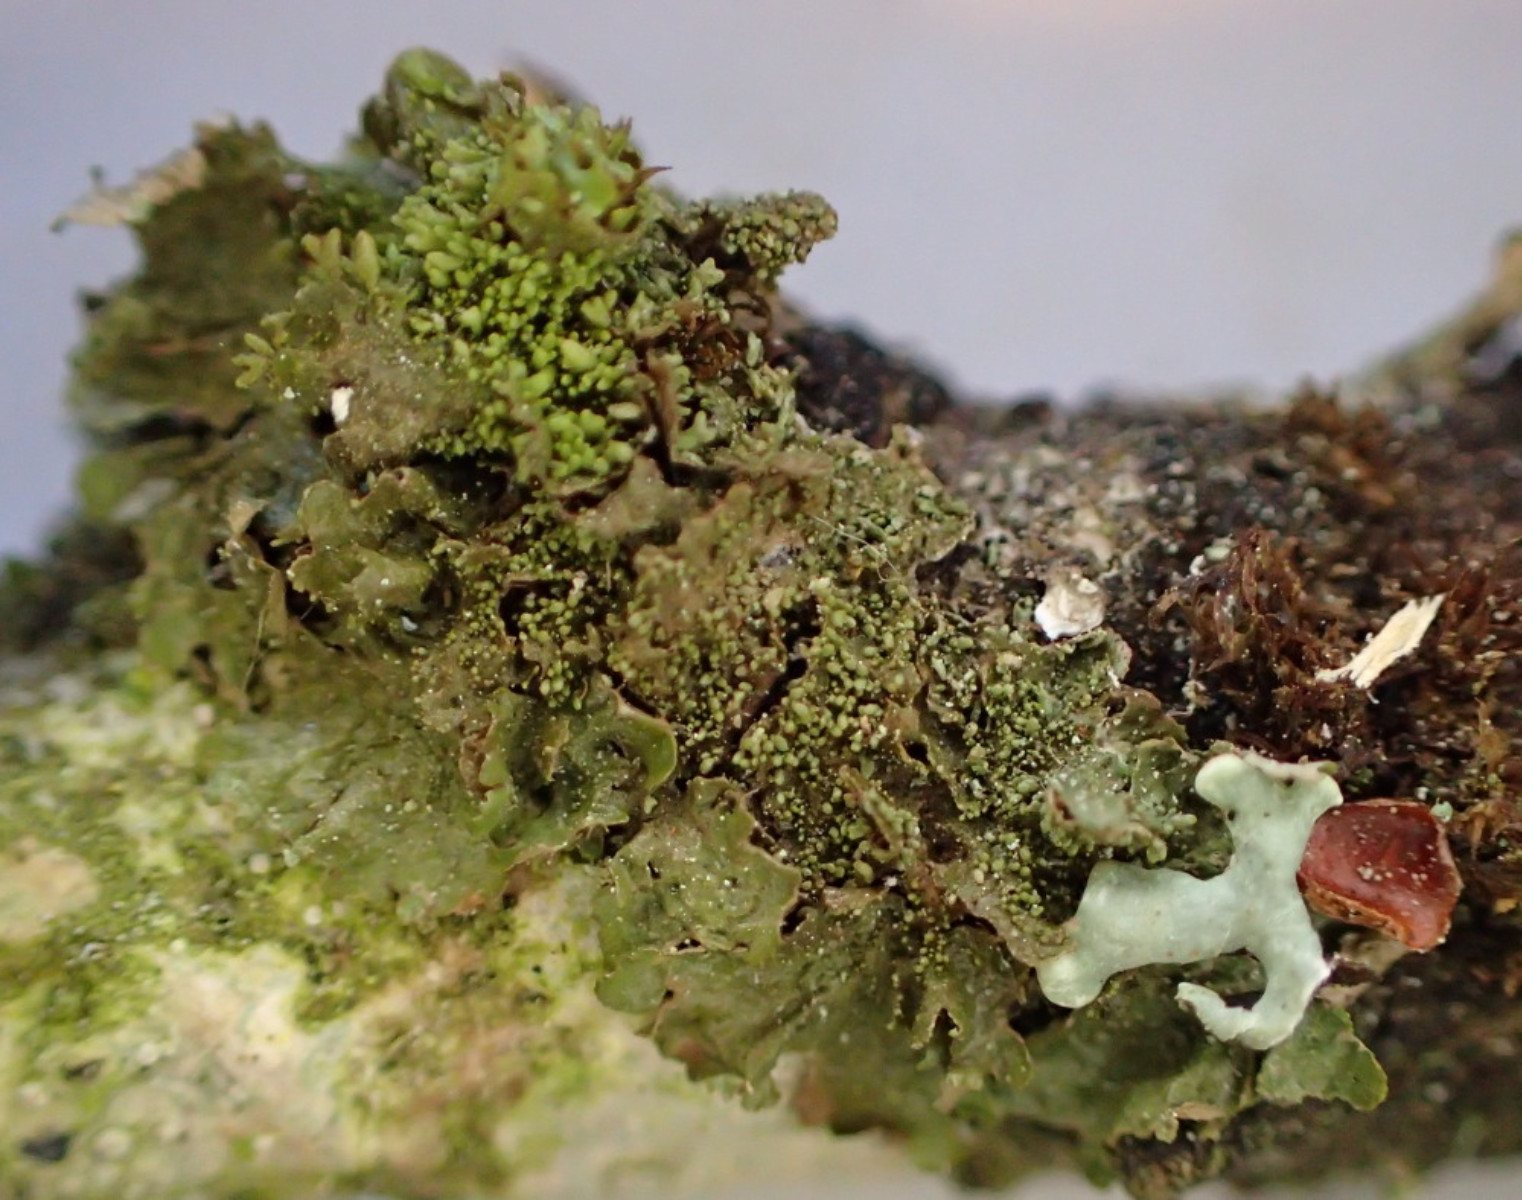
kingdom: Fungi
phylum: Ascomycota
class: Lecanoromycetes
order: Lecanorales
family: Parmeliaceae
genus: Melanohalea
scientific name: Melanohalea exasperatula
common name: kølle-skållav
